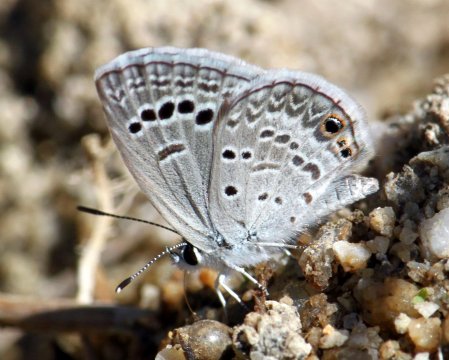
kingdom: Animalia
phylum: Arthropoda
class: Insecta
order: Lepidoptera
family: Lycaenidae
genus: Echinargus
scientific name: Echinargus isola
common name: Reakirt's Blue
